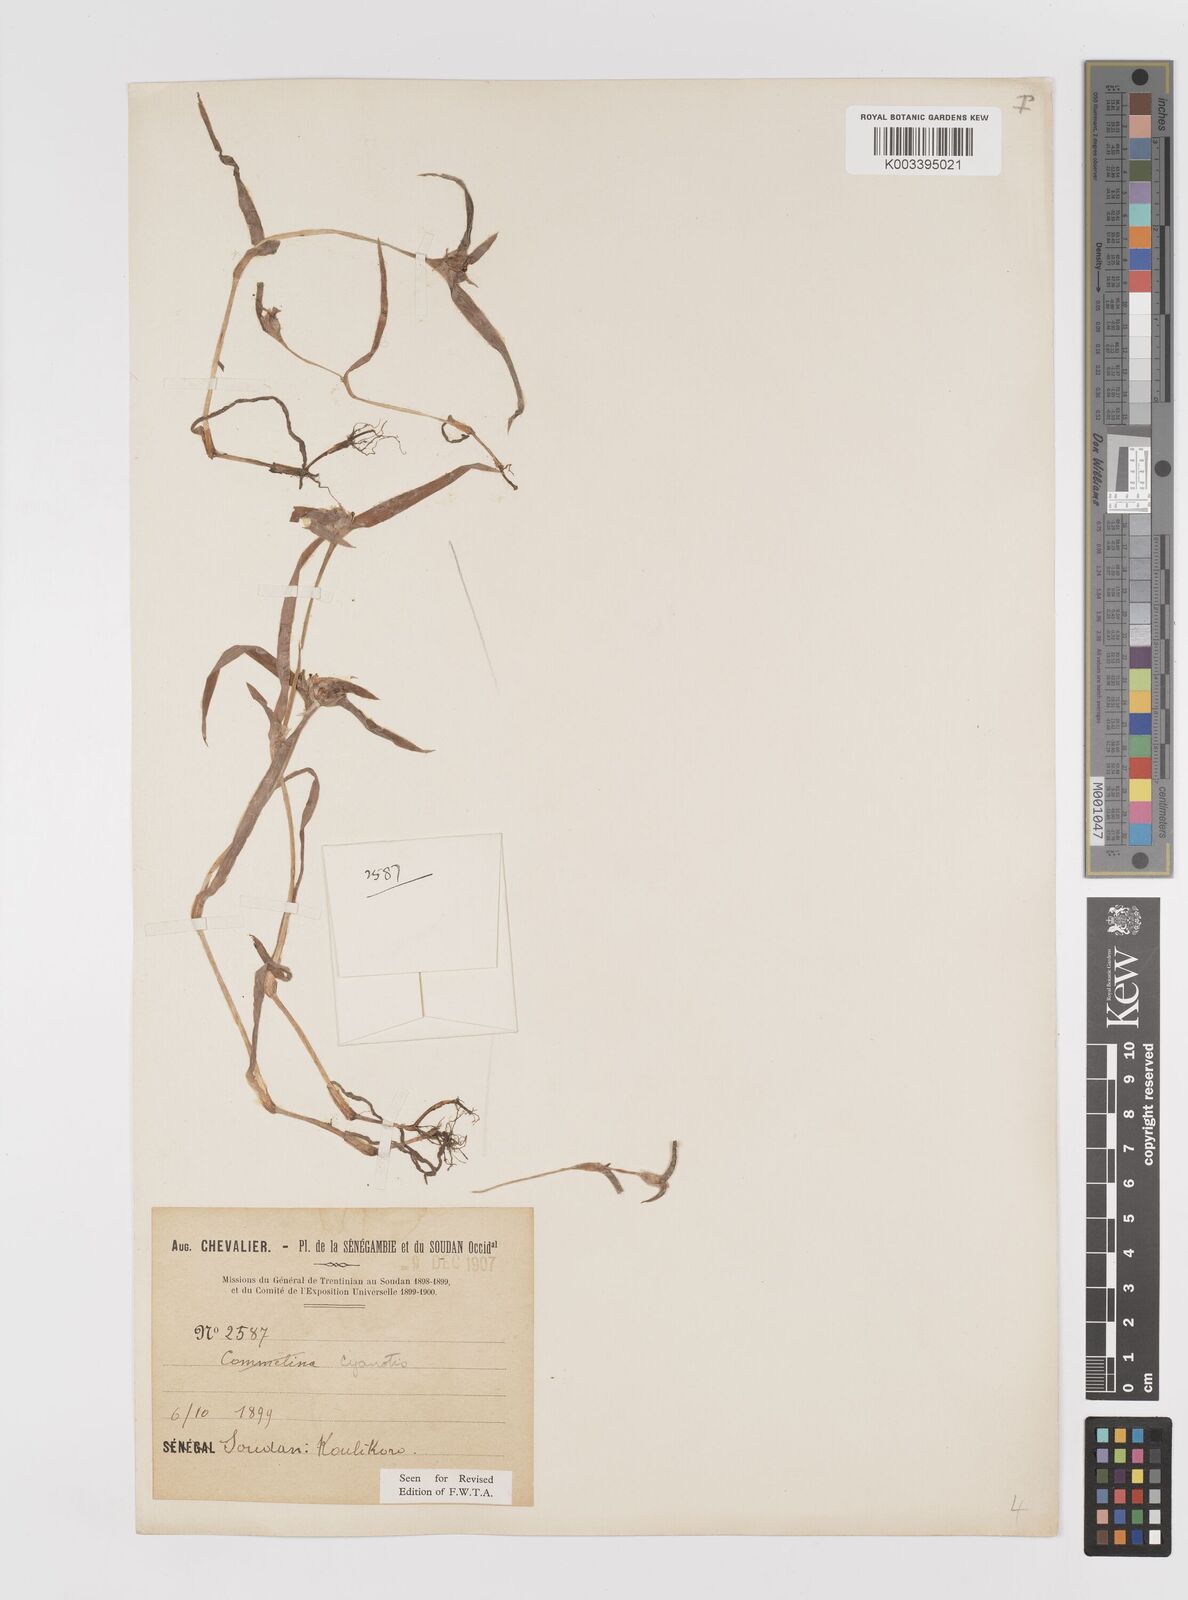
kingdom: Plantae
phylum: Tracheophyta
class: Liliopsida
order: Commelinales
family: Commelinaceae
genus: Cyanotis
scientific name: Cyanotis lanata
